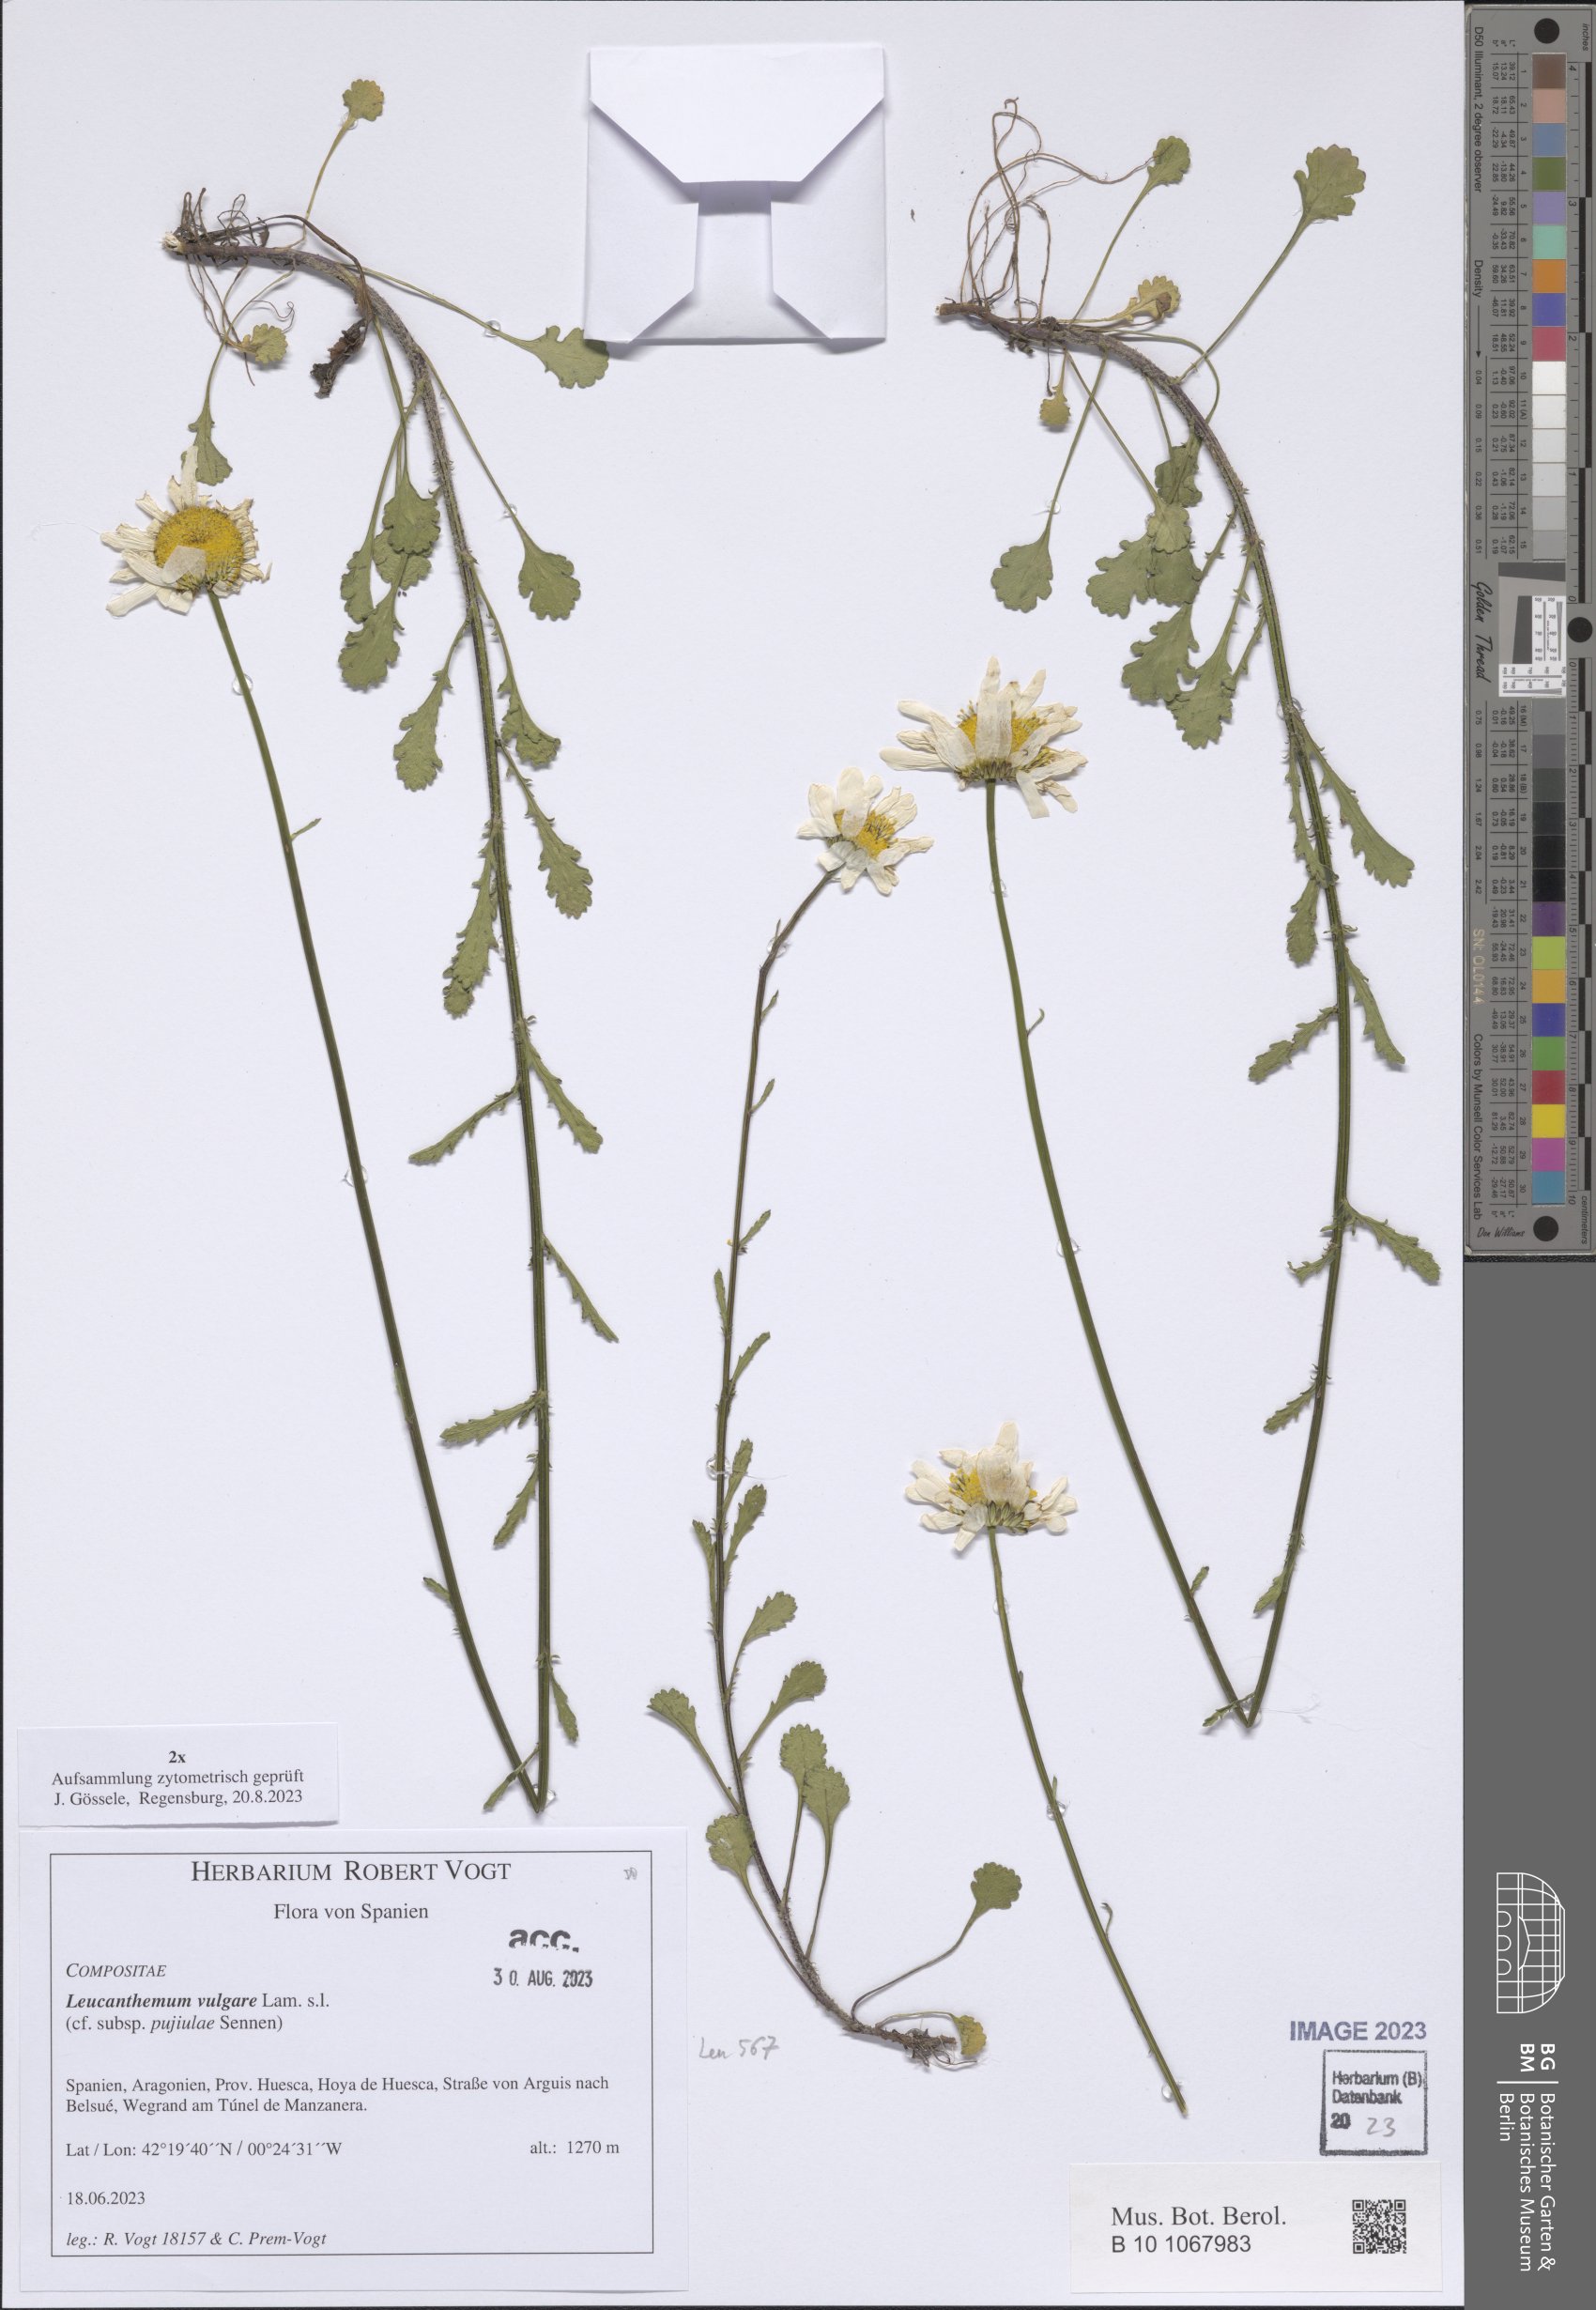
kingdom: Plantae
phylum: Tracheophyta
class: Magnoliopsida
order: Asterales
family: Asteraceae
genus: Leucanthemum
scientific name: Leucanthemum vulgare
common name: Oxeye daisy
